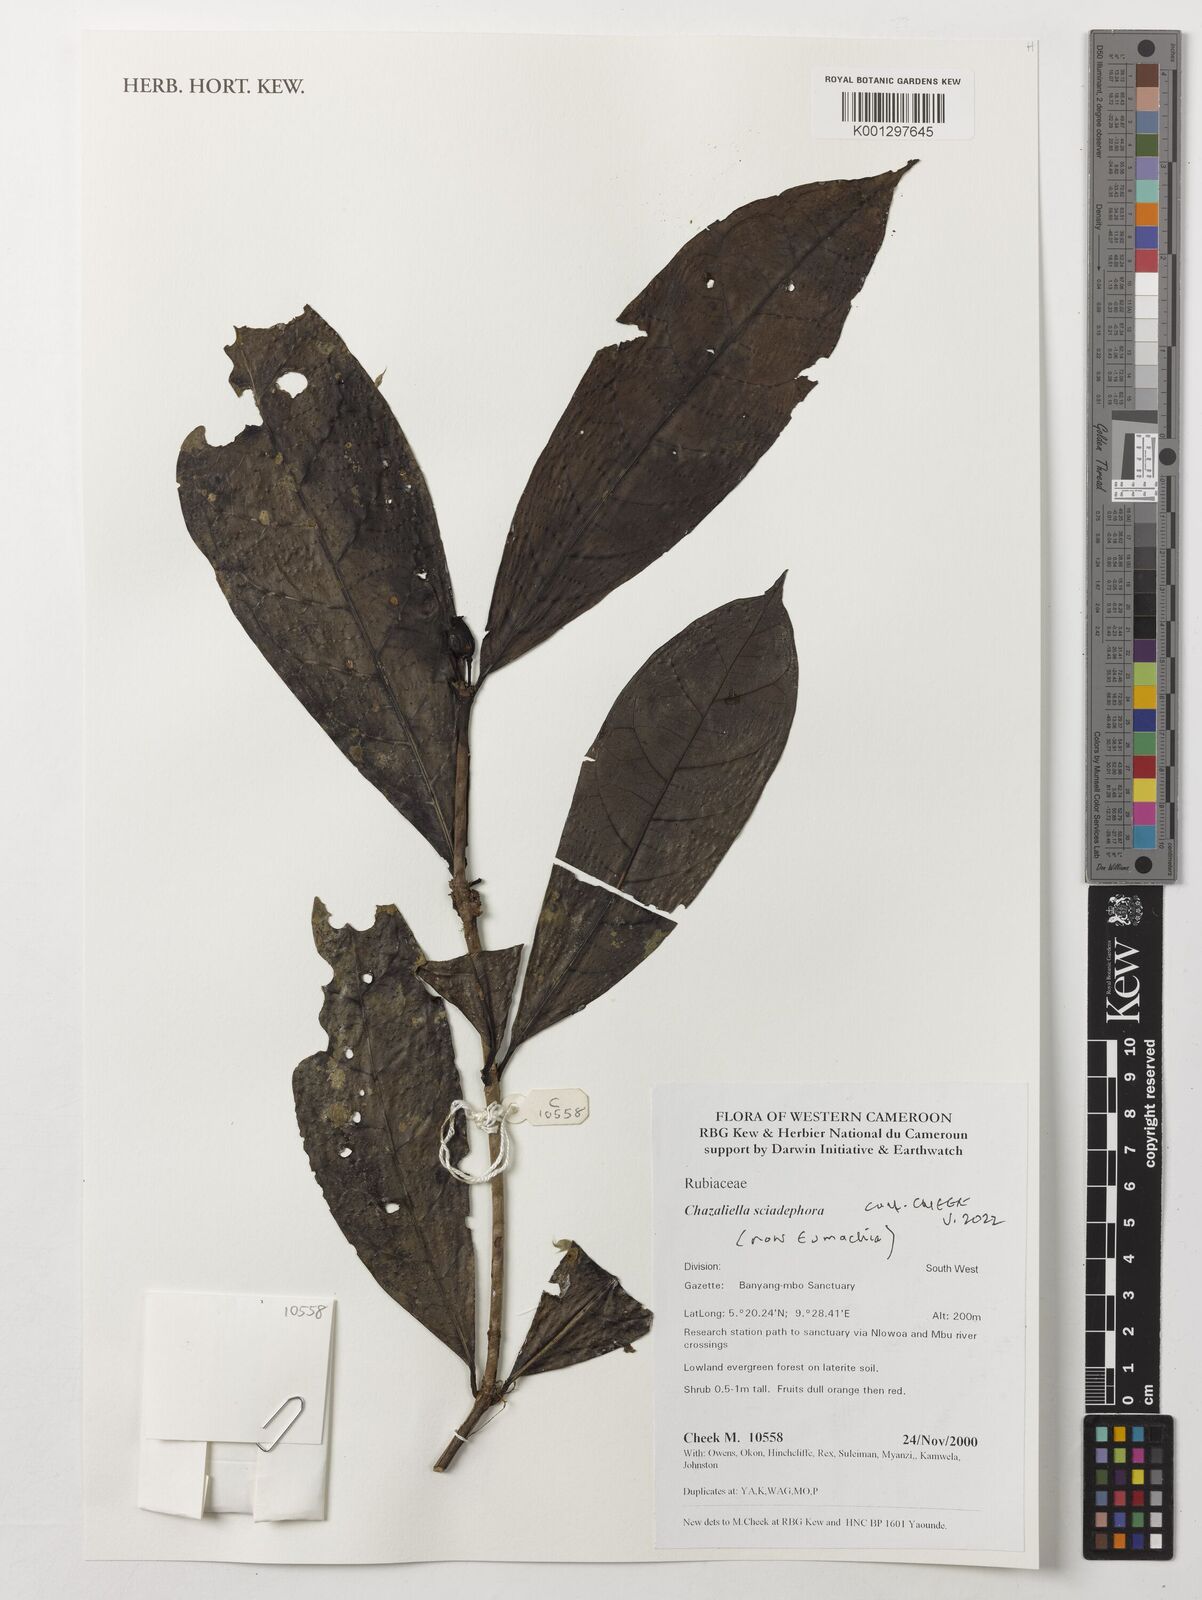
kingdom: Plantae
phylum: Tracheophyta
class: Magnoliopsida
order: Gentianales
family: Rubiaceae
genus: Eumachia
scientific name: Eumachia sciadephora
